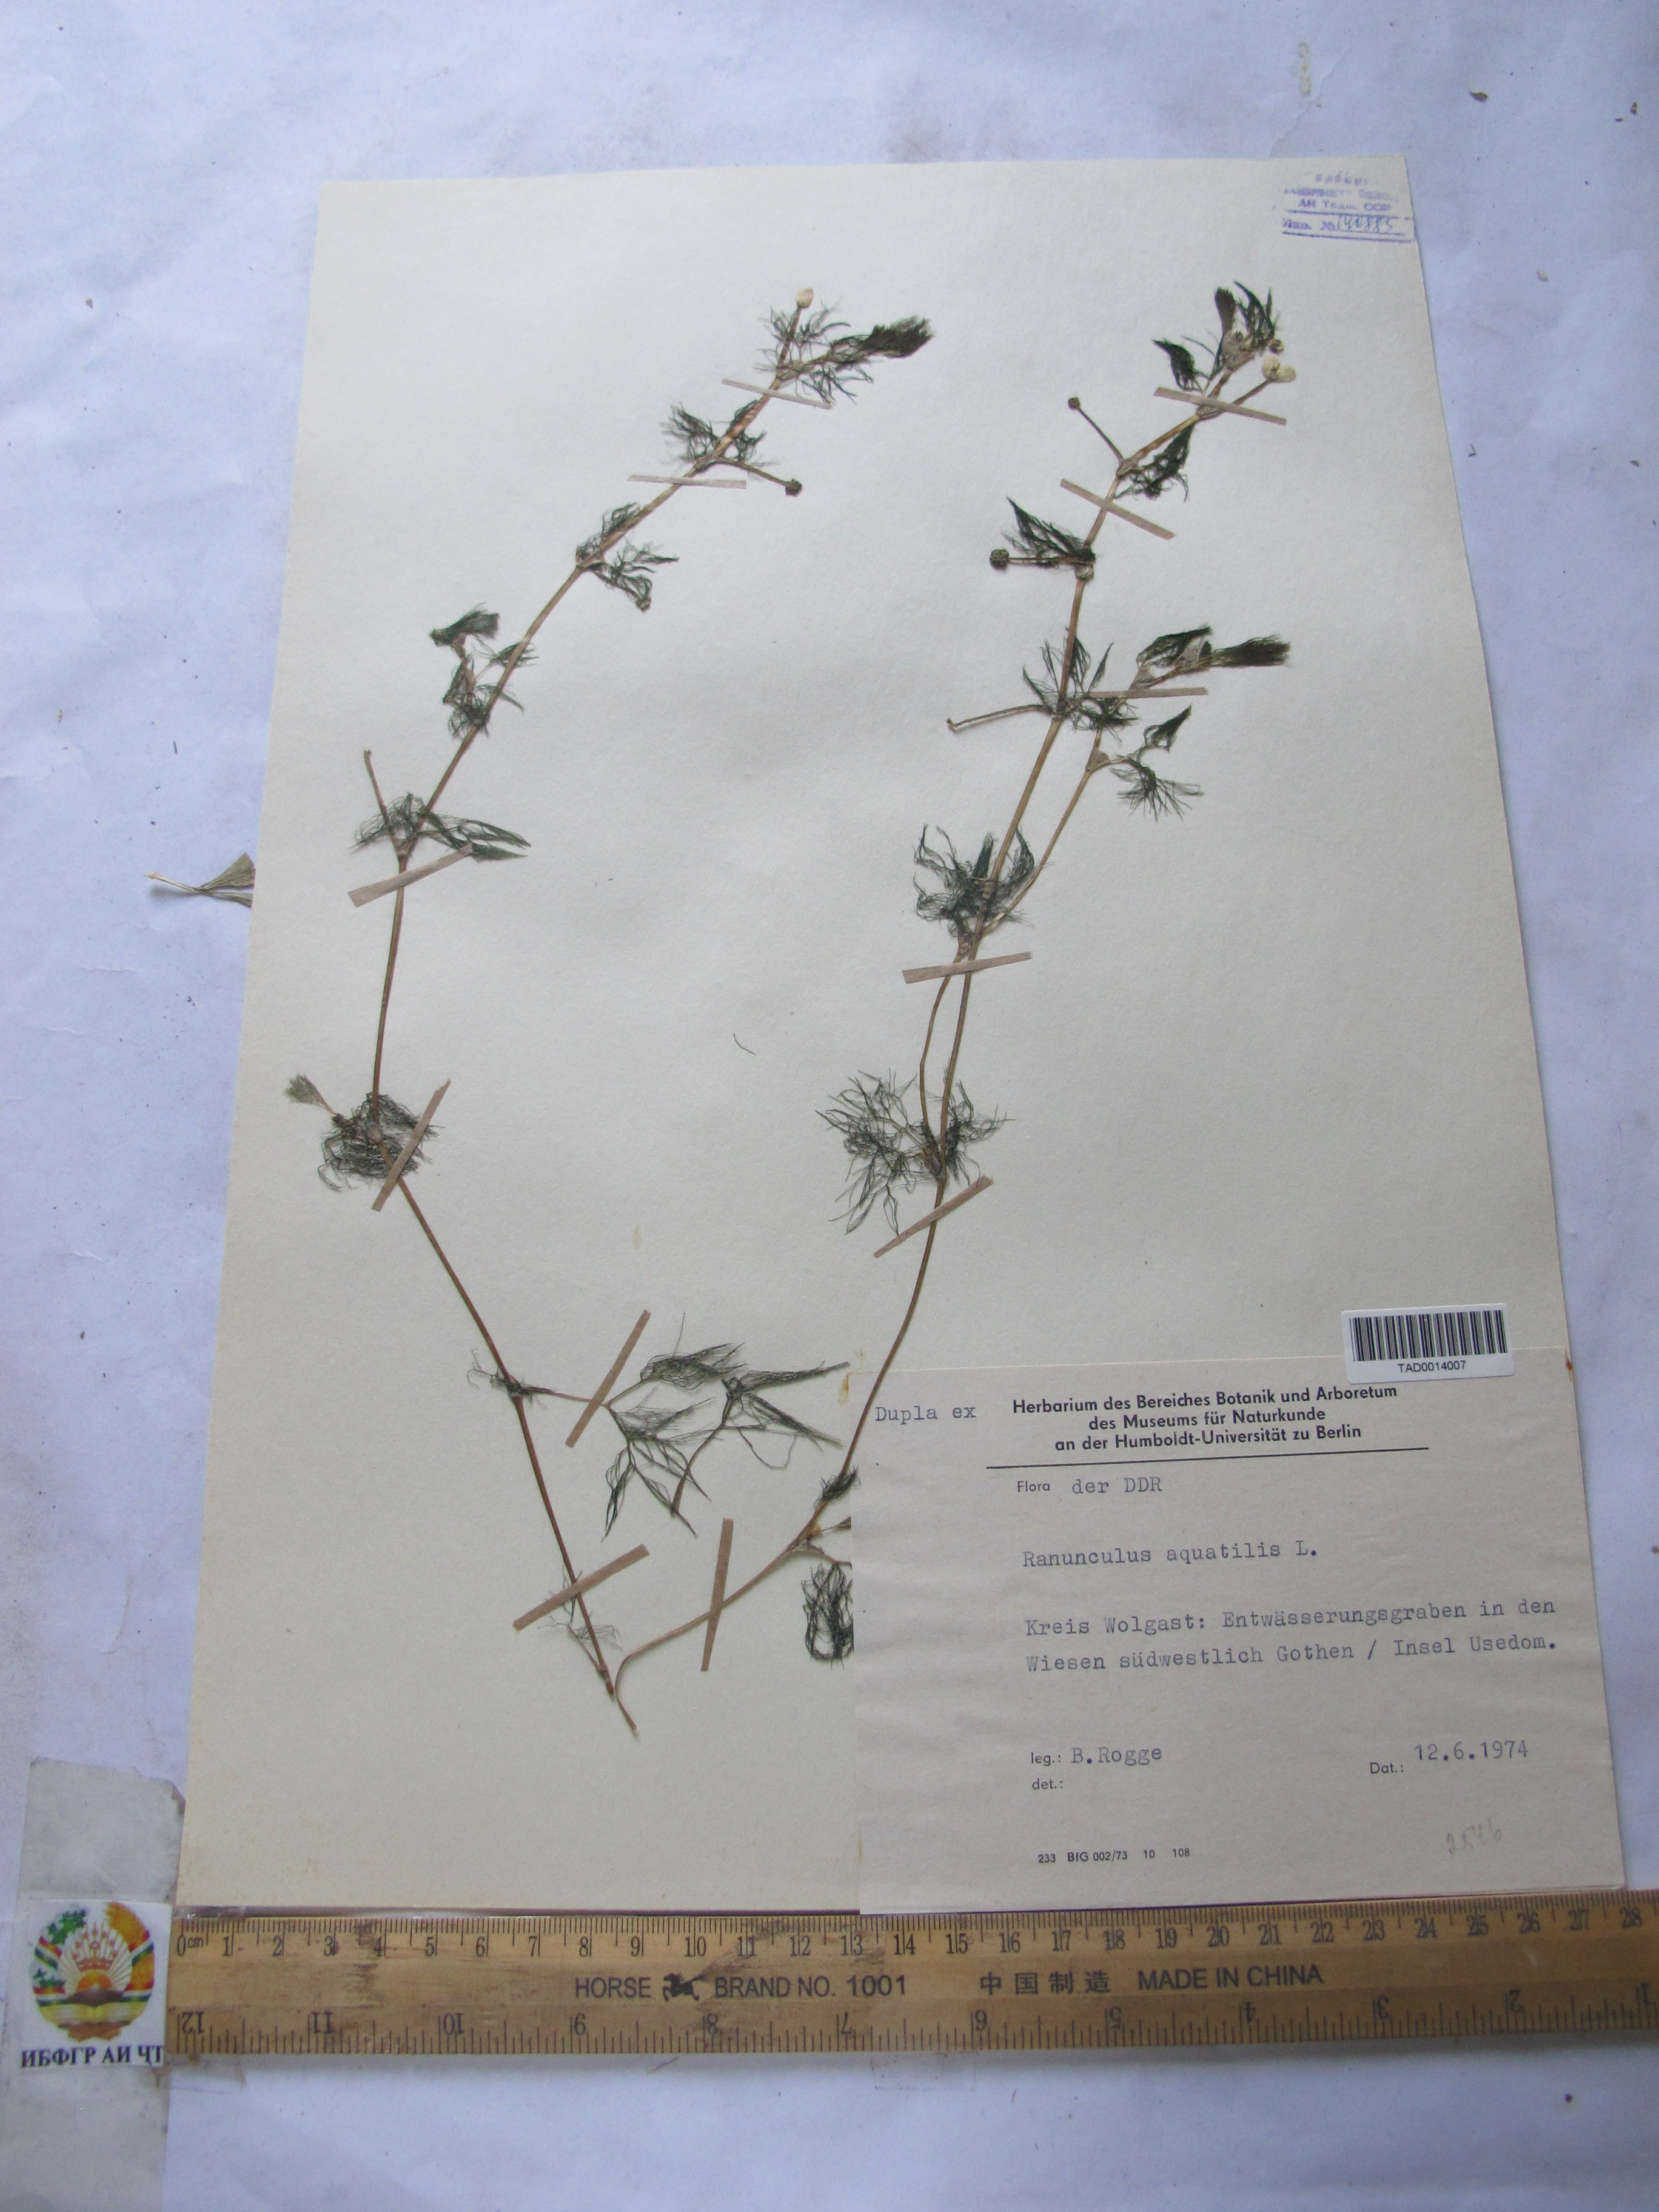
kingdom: Plantae
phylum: Tracheophyta
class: Magnoliopsida
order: Ranunculales
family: Ranunculaceae
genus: Ranunculus
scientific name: Ranunculus aquatilis
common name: Common water-crowfoot
